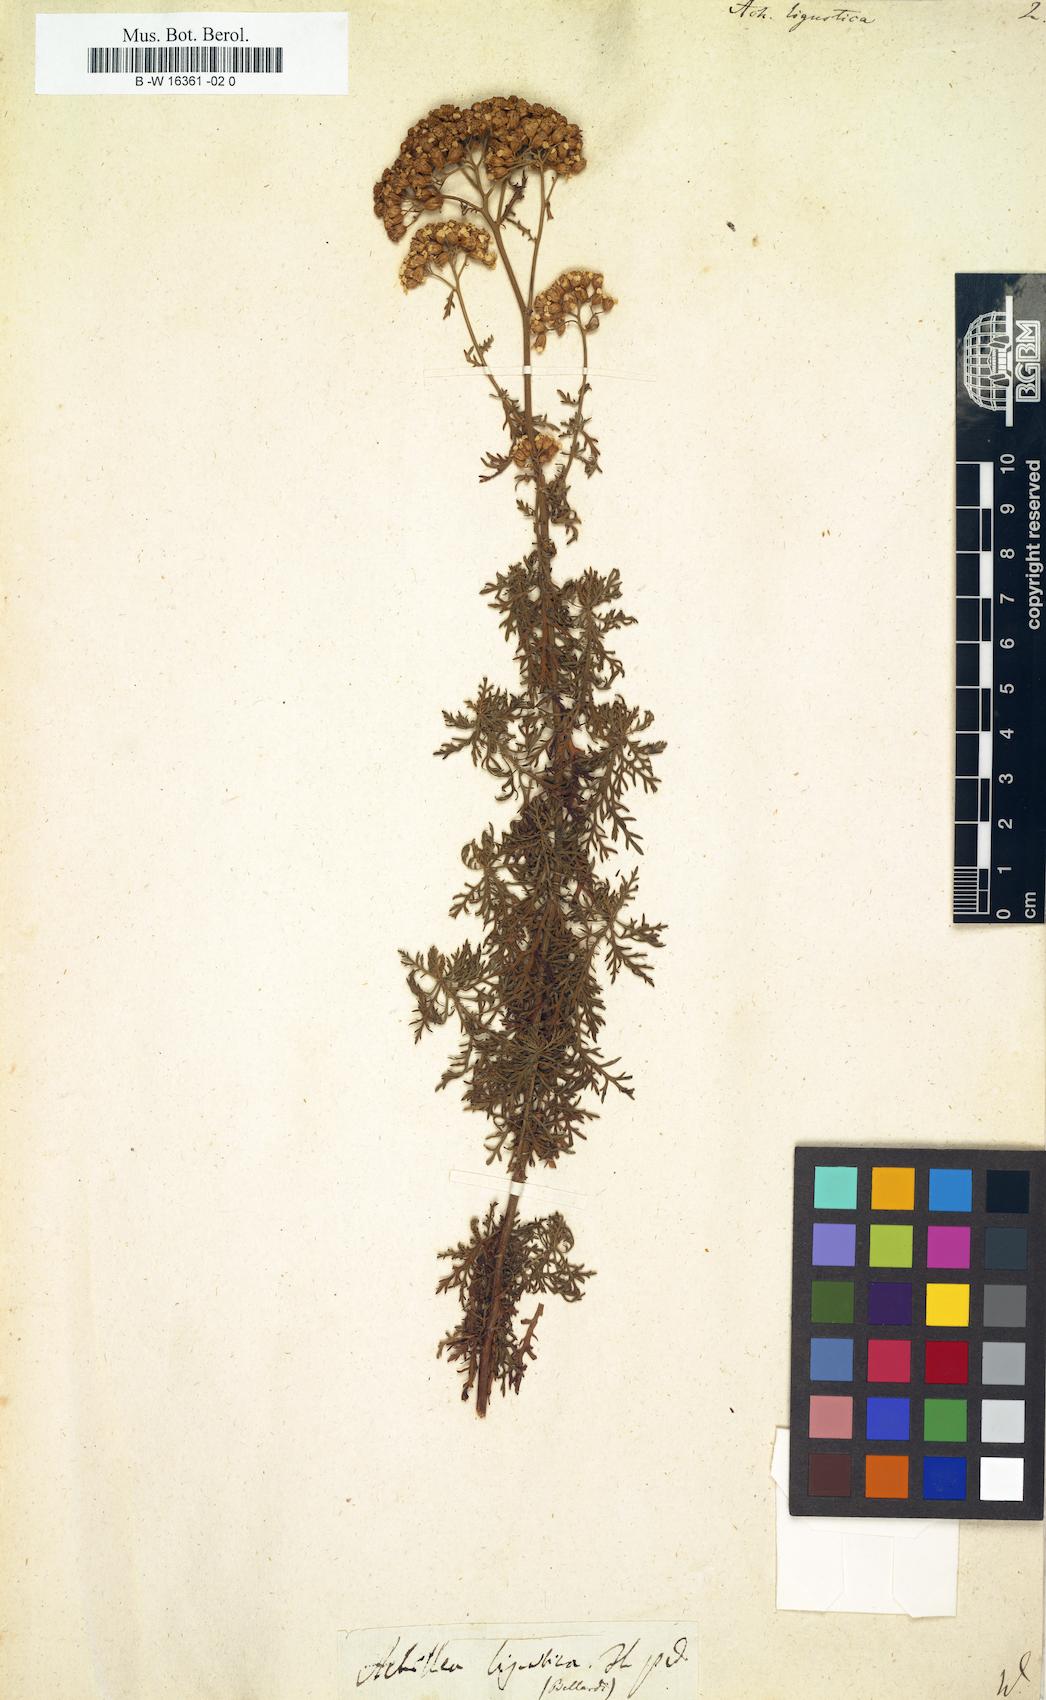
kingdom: Plantae
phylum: Tracheophyta
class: Magnoliopsida
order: Asterales
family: Asteraceae
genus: Achillea
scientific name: Achillea ligustica
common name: Southern yarrow
